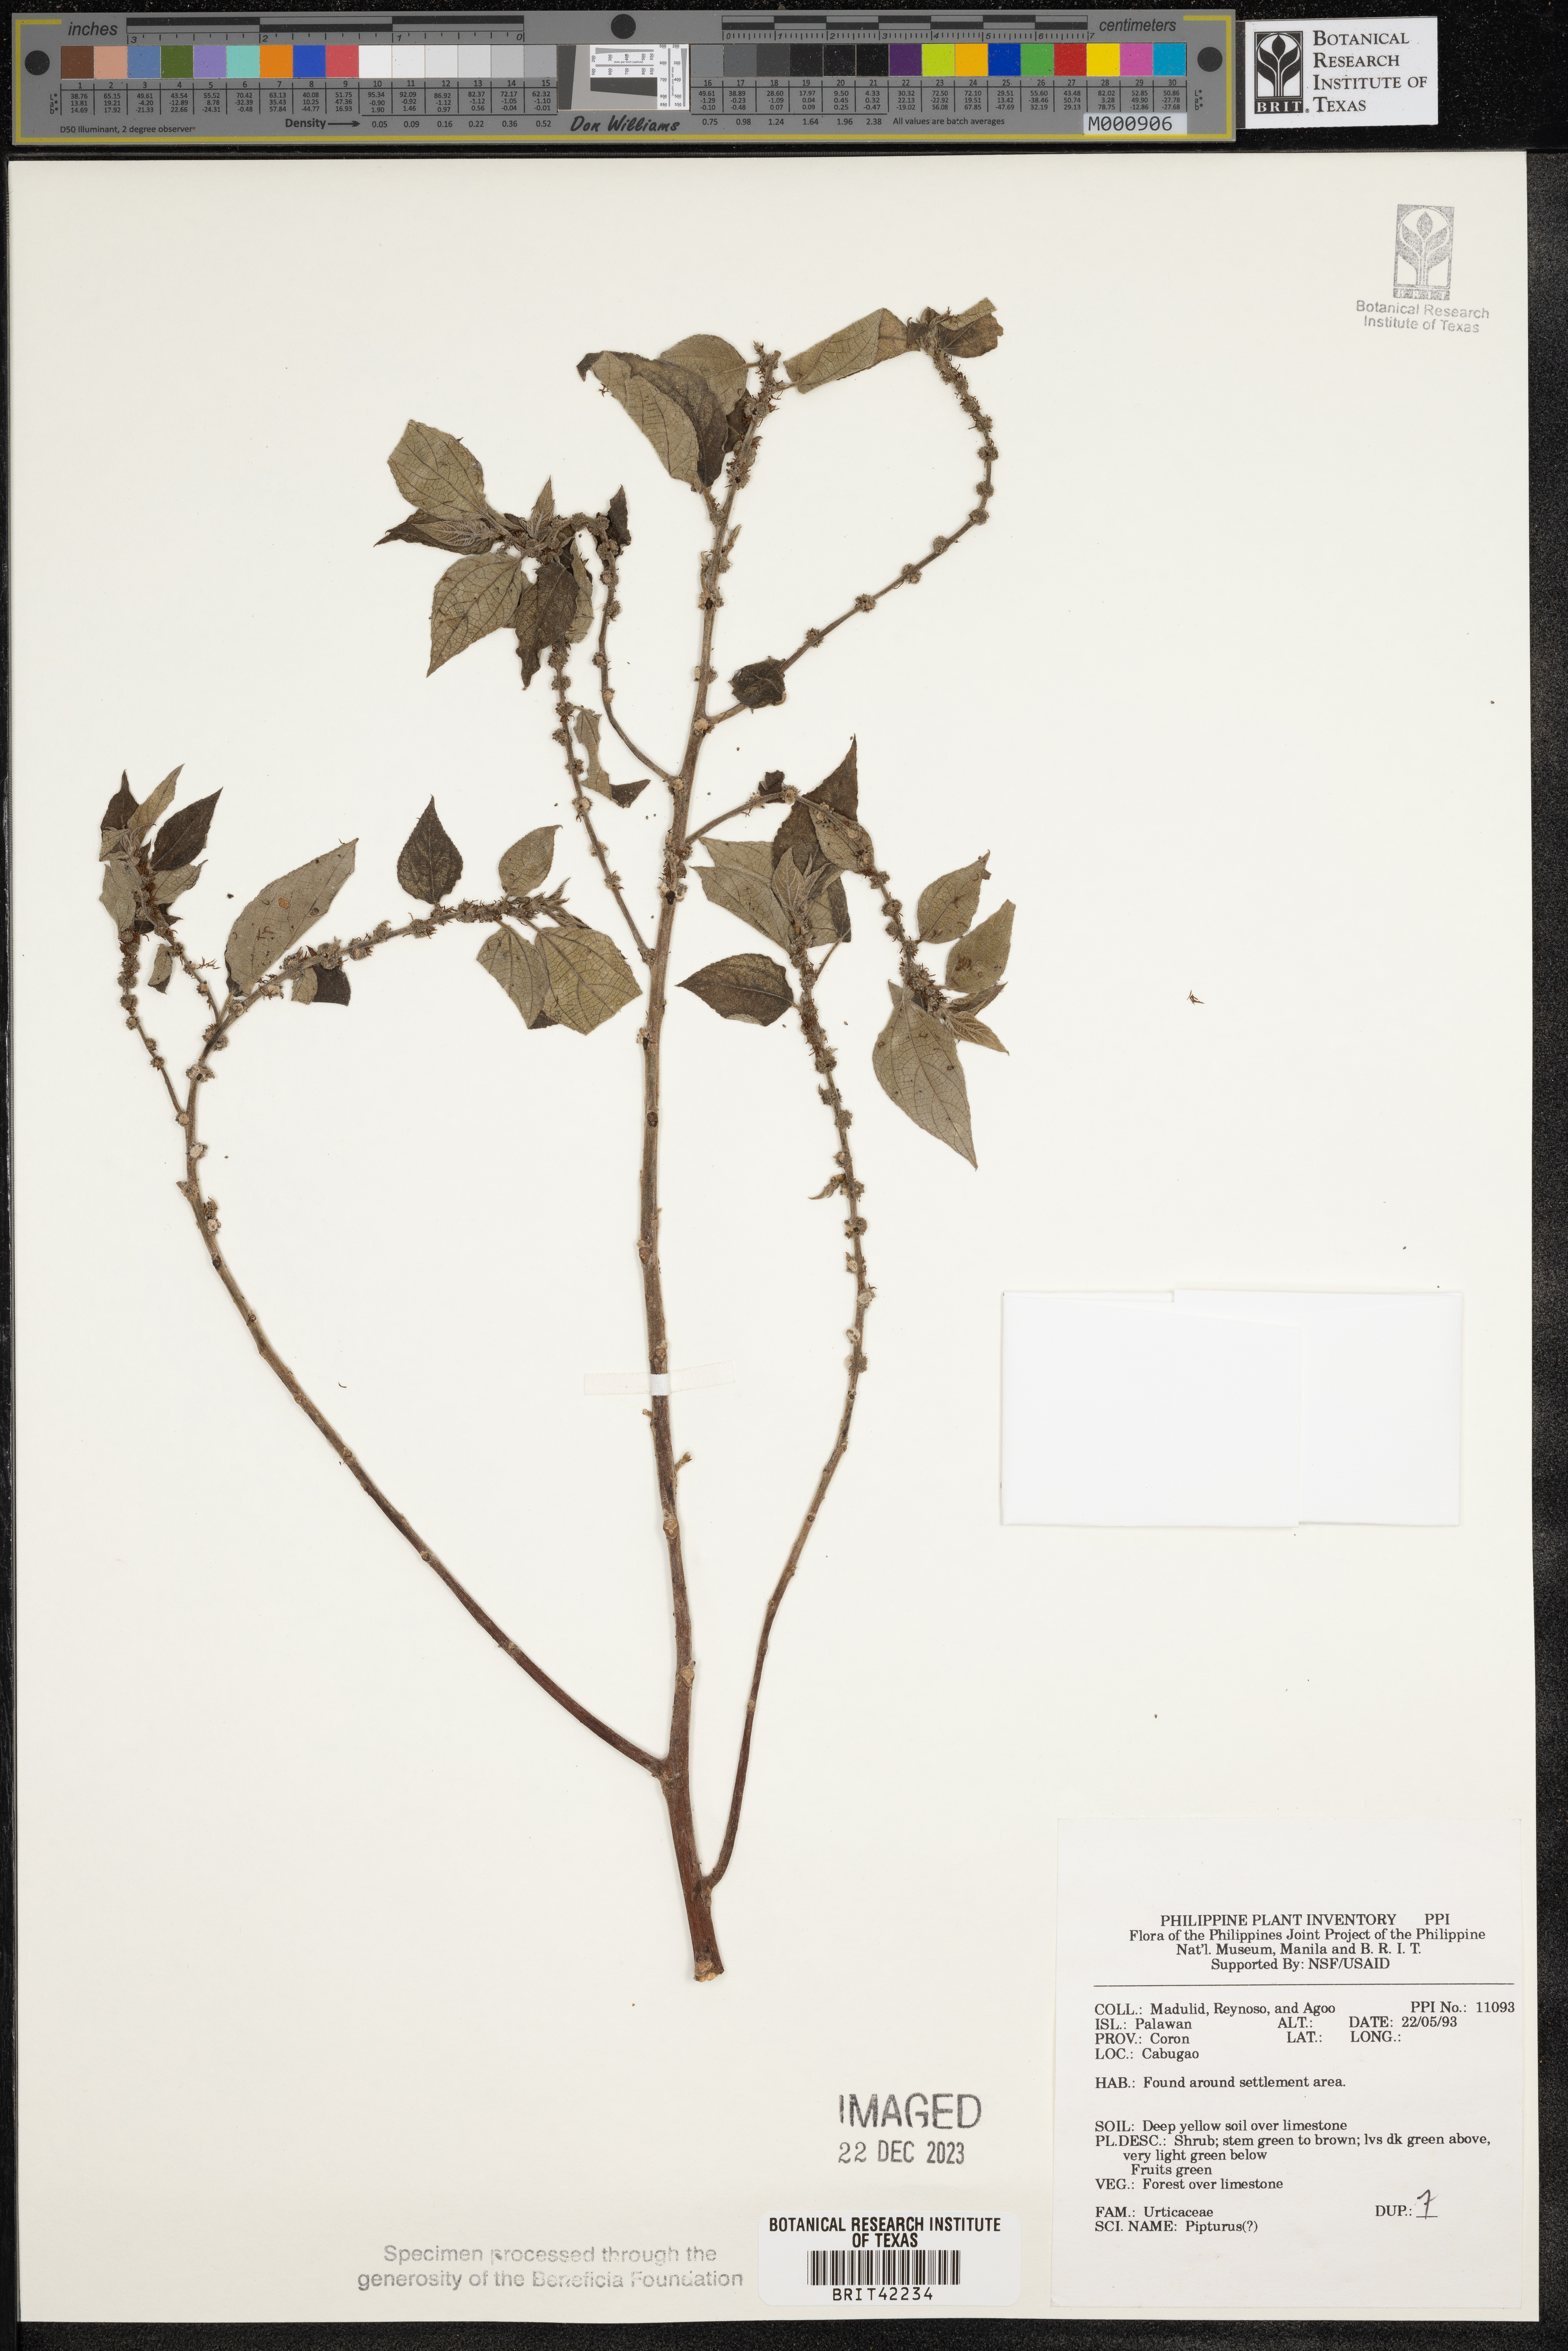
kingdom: Plantae
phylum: Tracheophyta
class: Magnoliopsida
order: Rosales
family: Urticaceae
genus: Pipturus
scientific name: Pipturus
